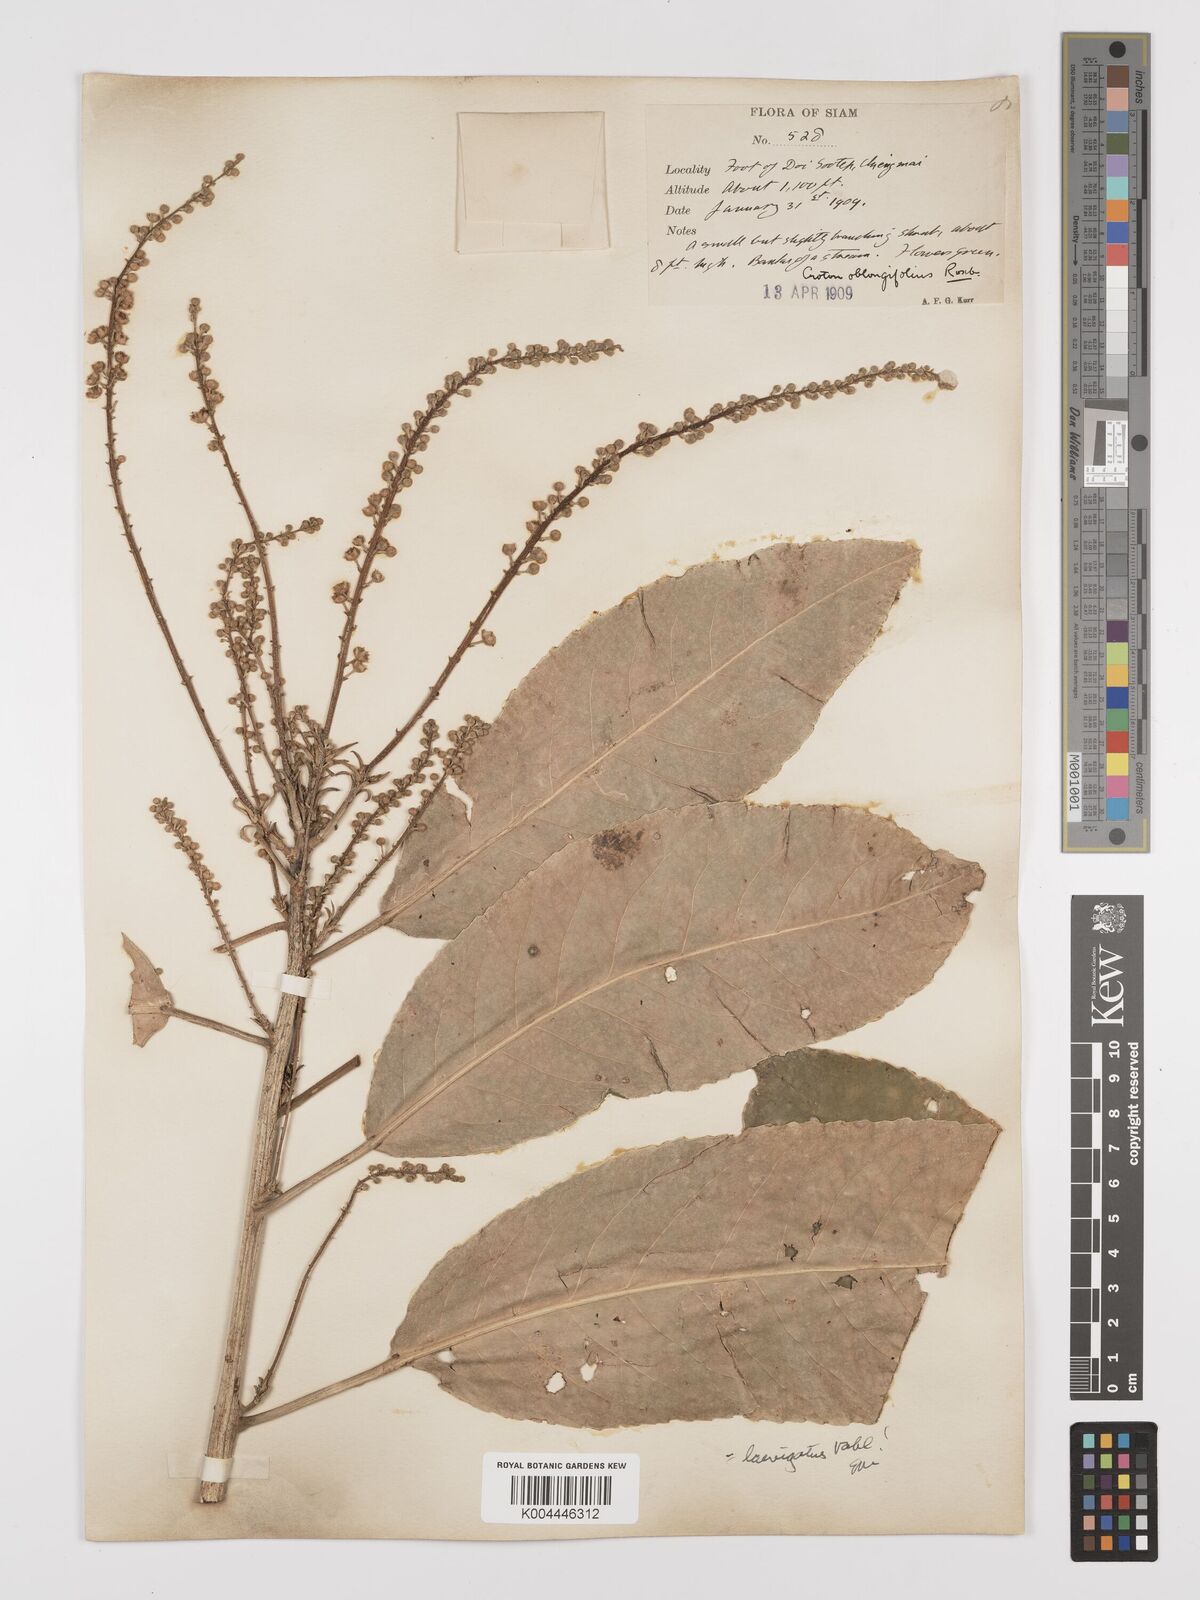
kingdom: Plantae
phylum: Tracheophyta
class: Magnoliopsida
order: Malpighiales
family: Euphorbiaceae
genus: Croton
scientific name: Croton
